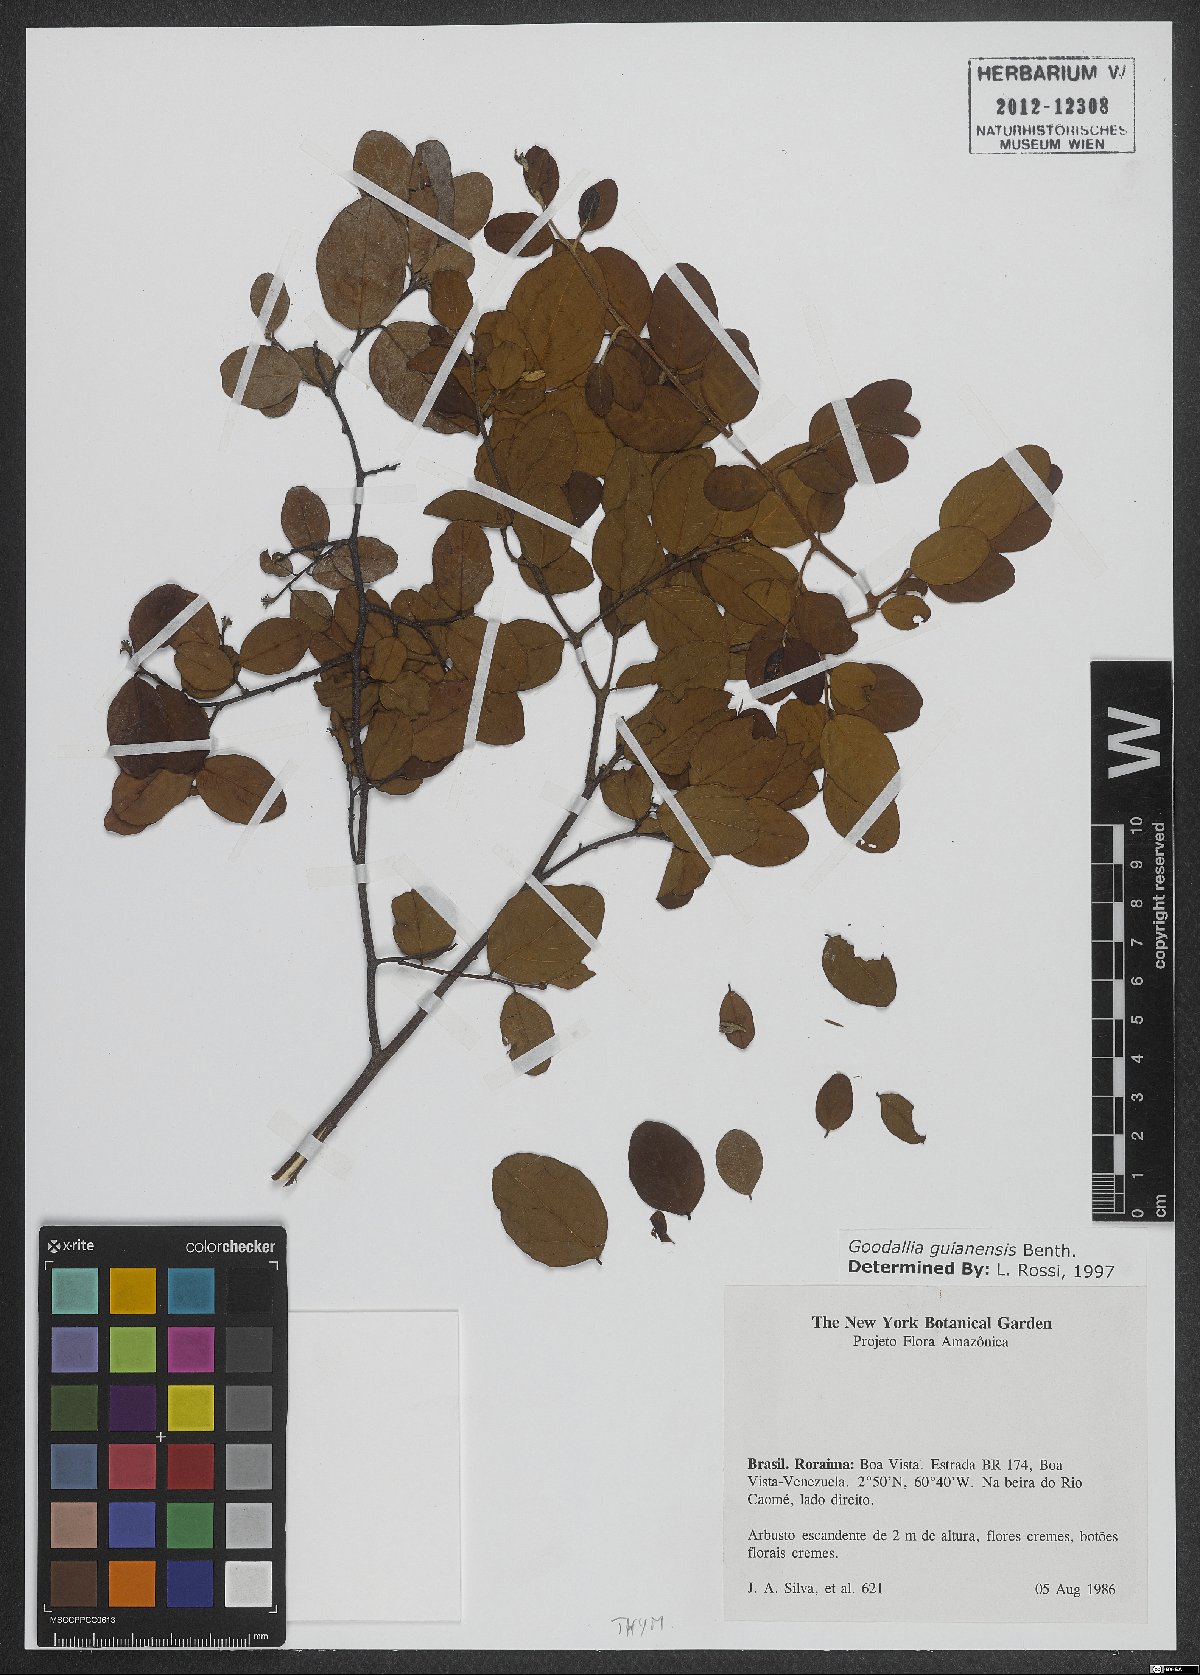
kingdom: Plantae
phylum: Tracheophyta
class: Magnoliopsida
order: Malvales
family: Thymelaeaceae
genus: Goodallia
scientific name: Goodallia guianensis
